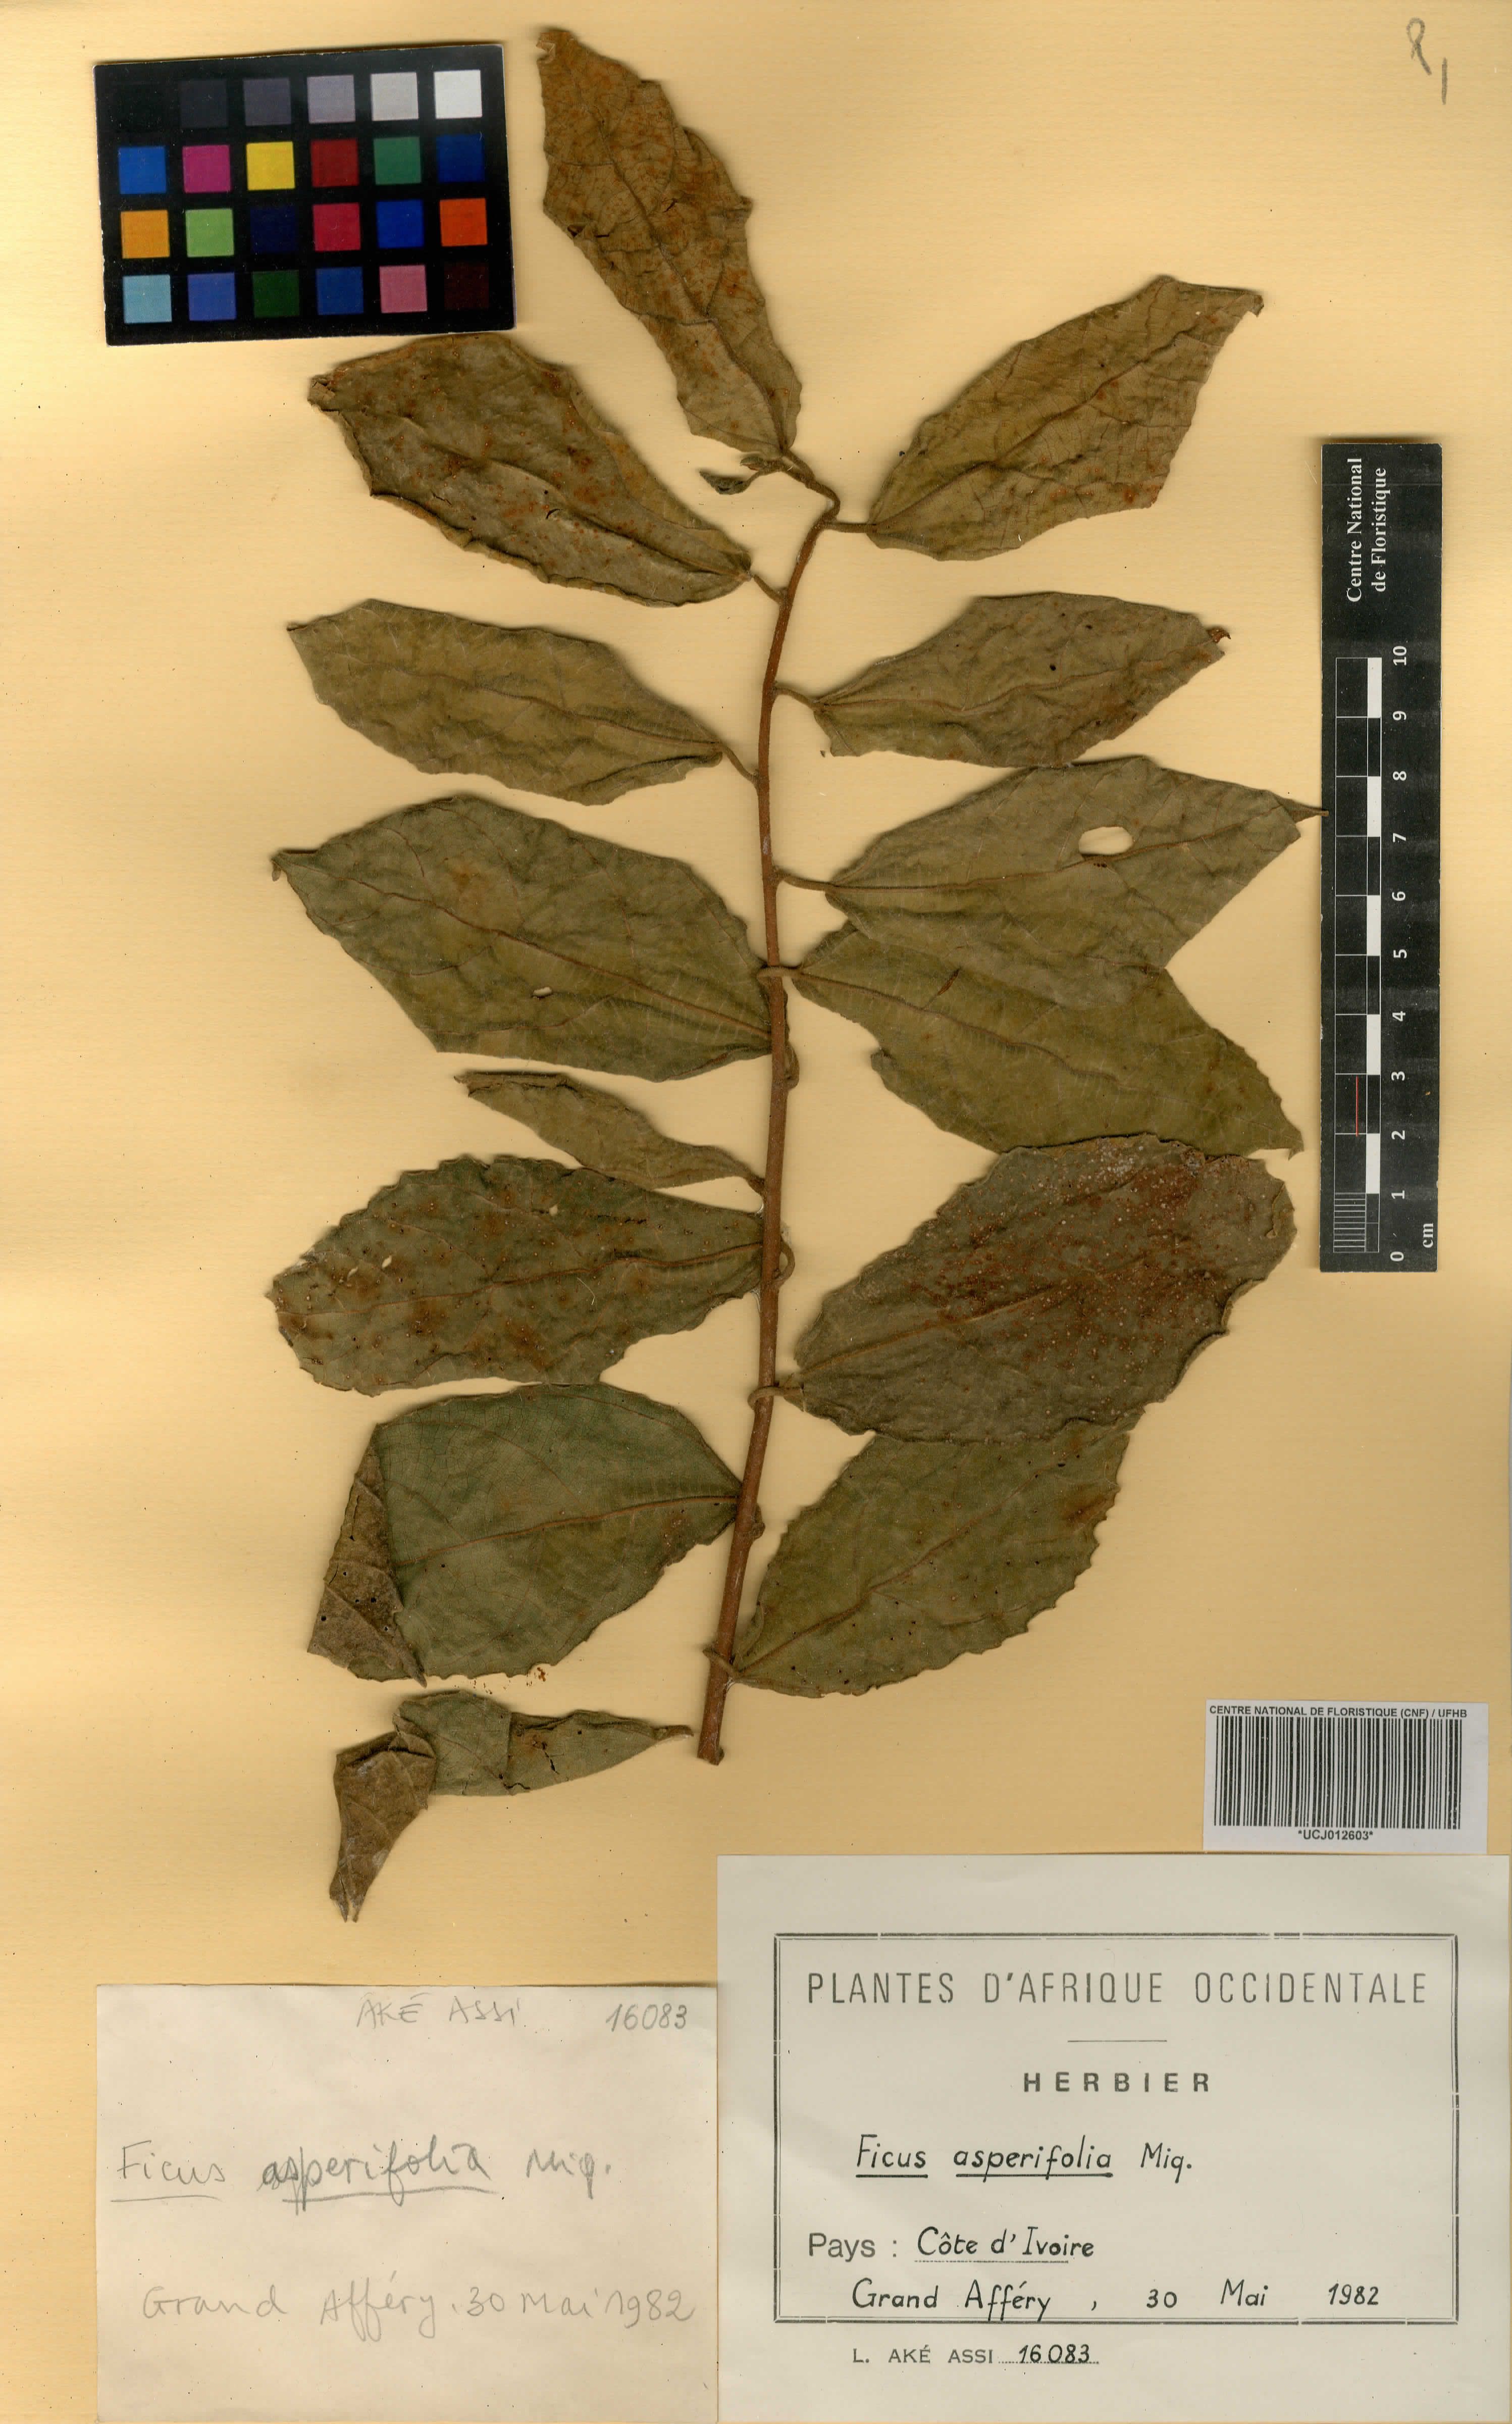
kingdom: Plantae
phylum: Tracheophyta
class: Magnoliopsida
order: Rosales
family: Moraceae
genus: Ficus
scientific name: Ficus asperifolia
